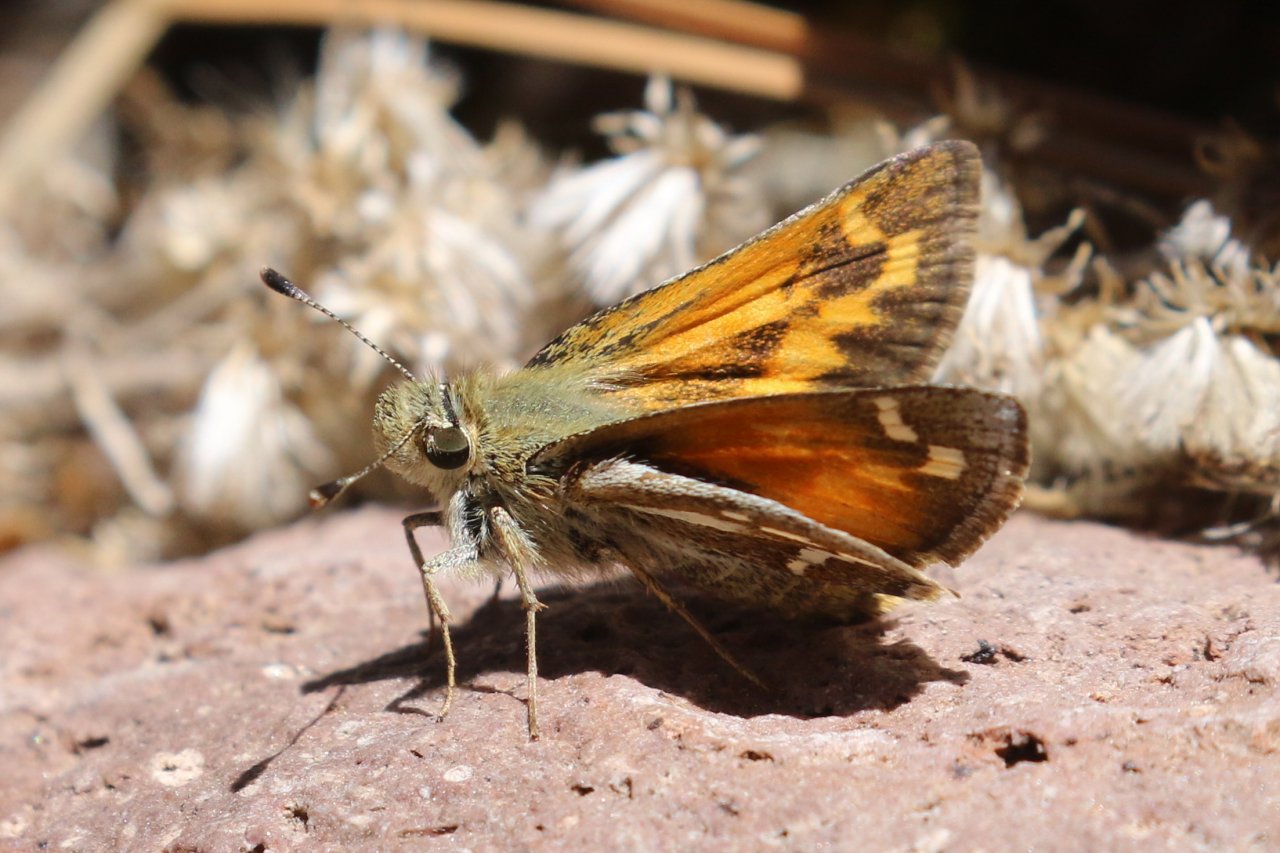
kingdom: Animalia
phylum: Arthropoda
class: Insecta
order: Lepidoptera
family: Hesperiidae
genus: Stinga
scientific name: Stinga morrisoni
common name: Morrison's Skipper
